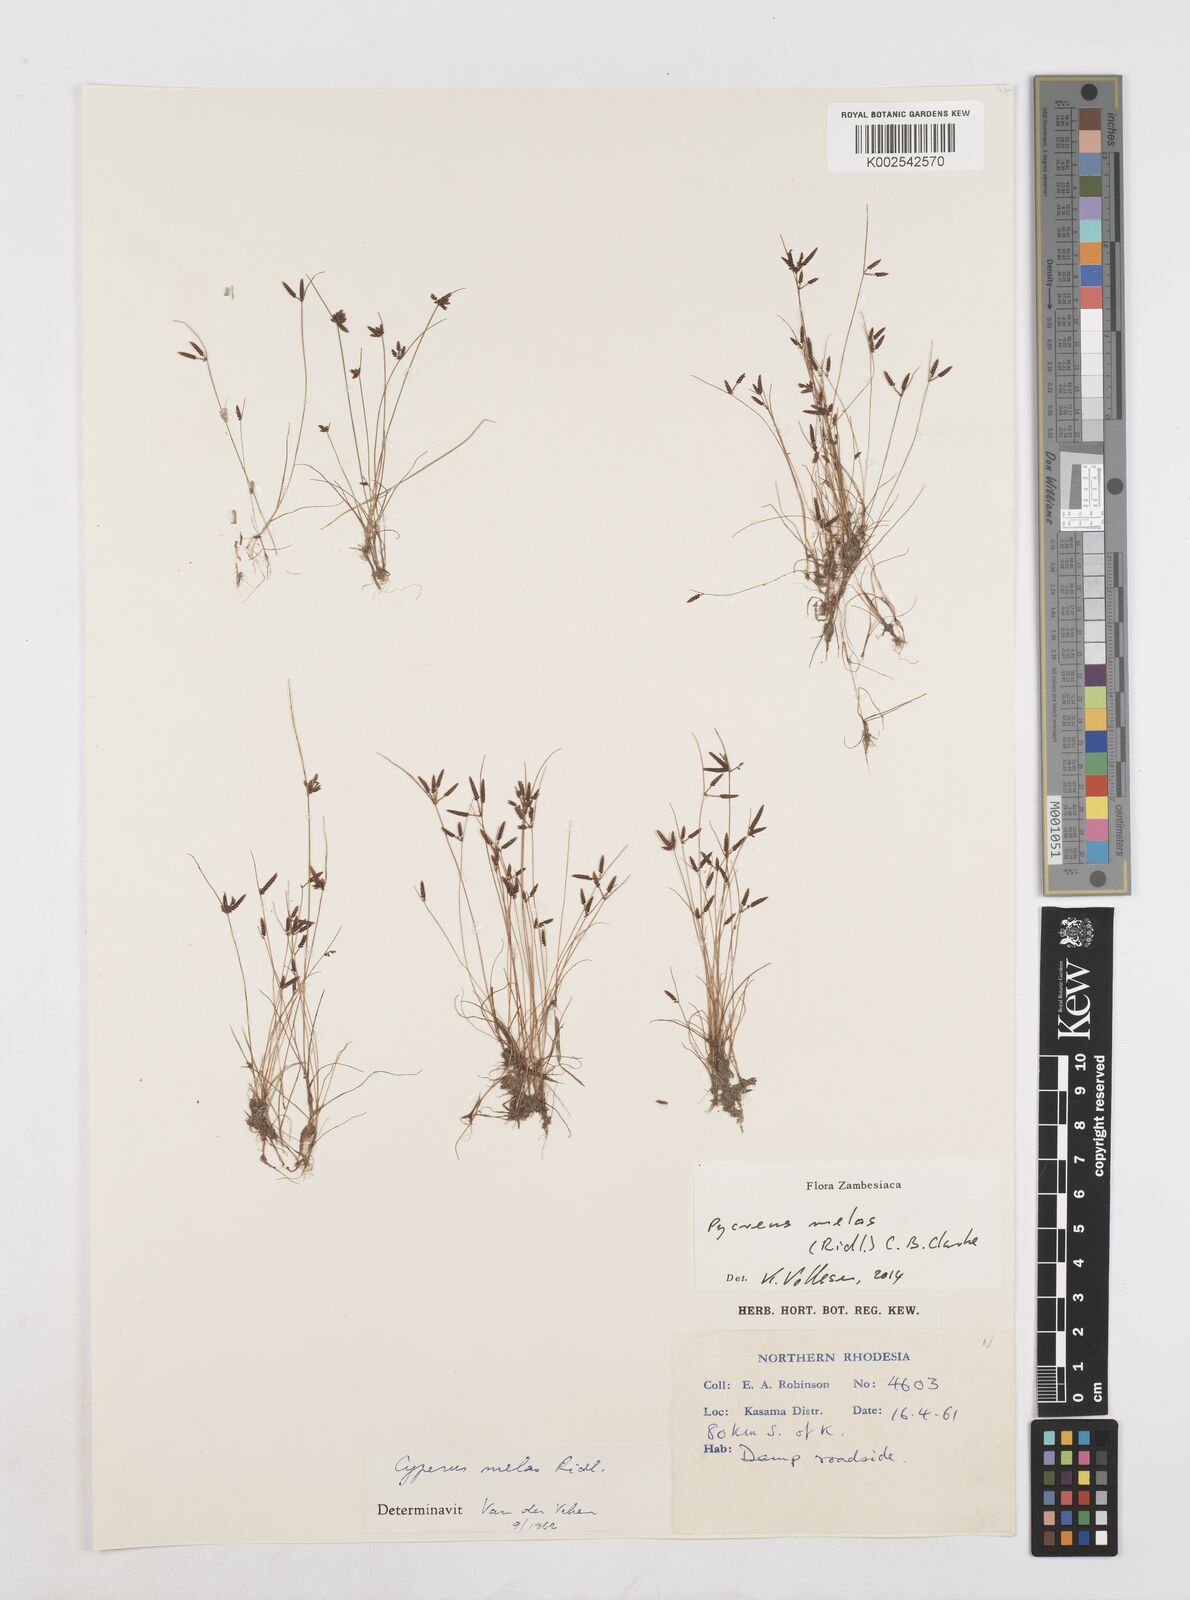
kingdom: Plantae
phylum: Tracheophyta
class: Liliopsida
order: Poales
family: Cyperaceae
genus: Cyperus
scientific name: Cyperus melas
